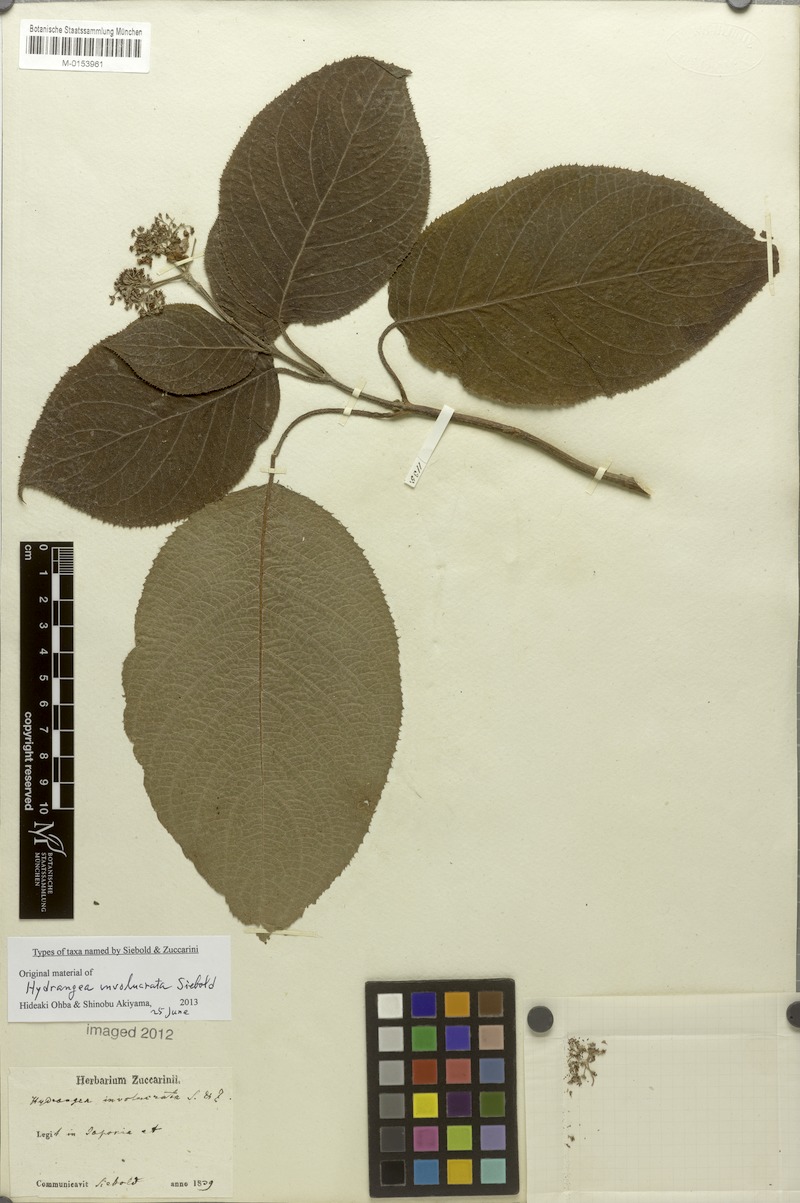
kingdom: Plantae
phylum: Tracheophyta
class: Magnoliopsida
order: Cornales
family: Hydrangeaceae
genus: Hydrangea
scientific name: Hydrangea involucrata
